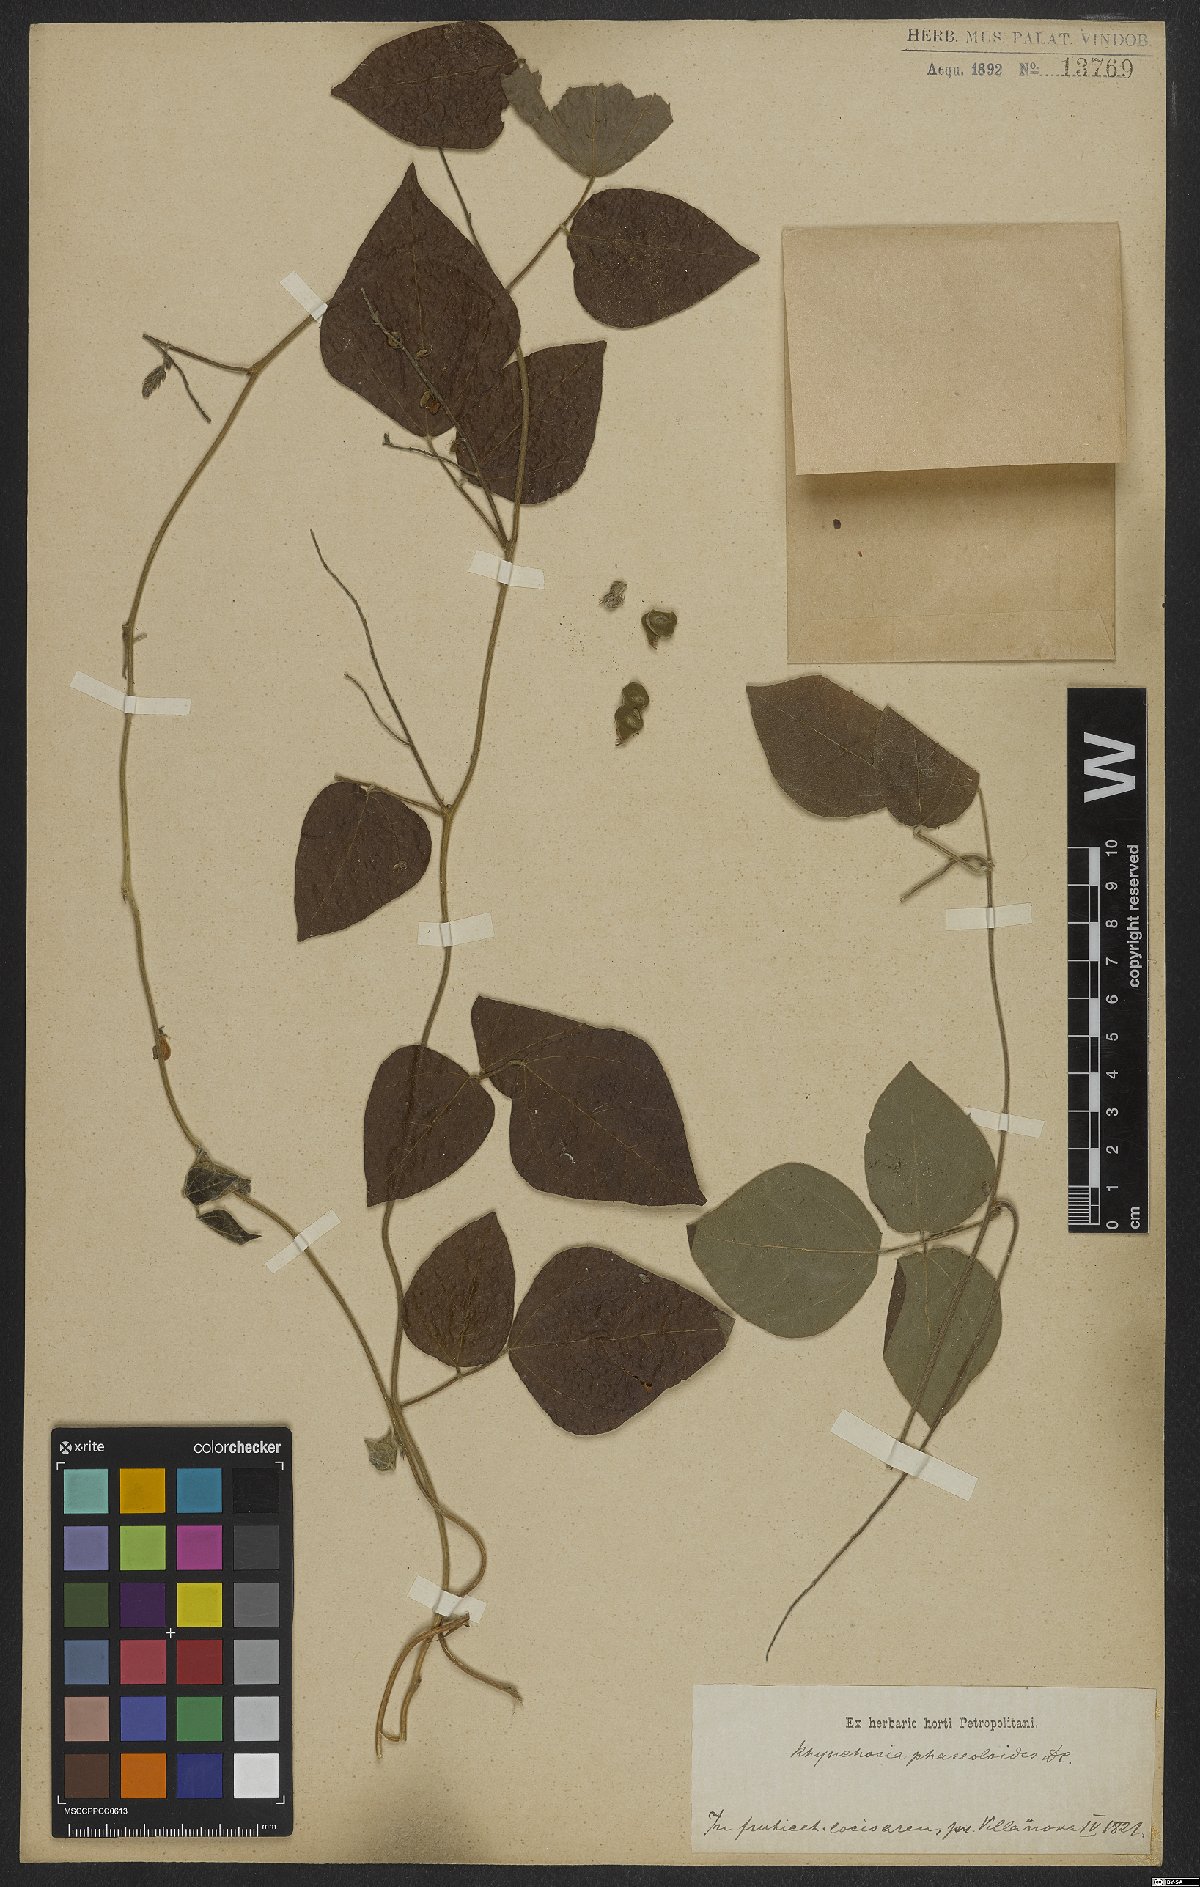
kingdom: Plantae
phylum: Tracheophyta
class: Magnoliopsida
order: Fabales
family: Fabaceae
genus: Rhynchosia
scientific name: Rhynchosia phaseoloides
